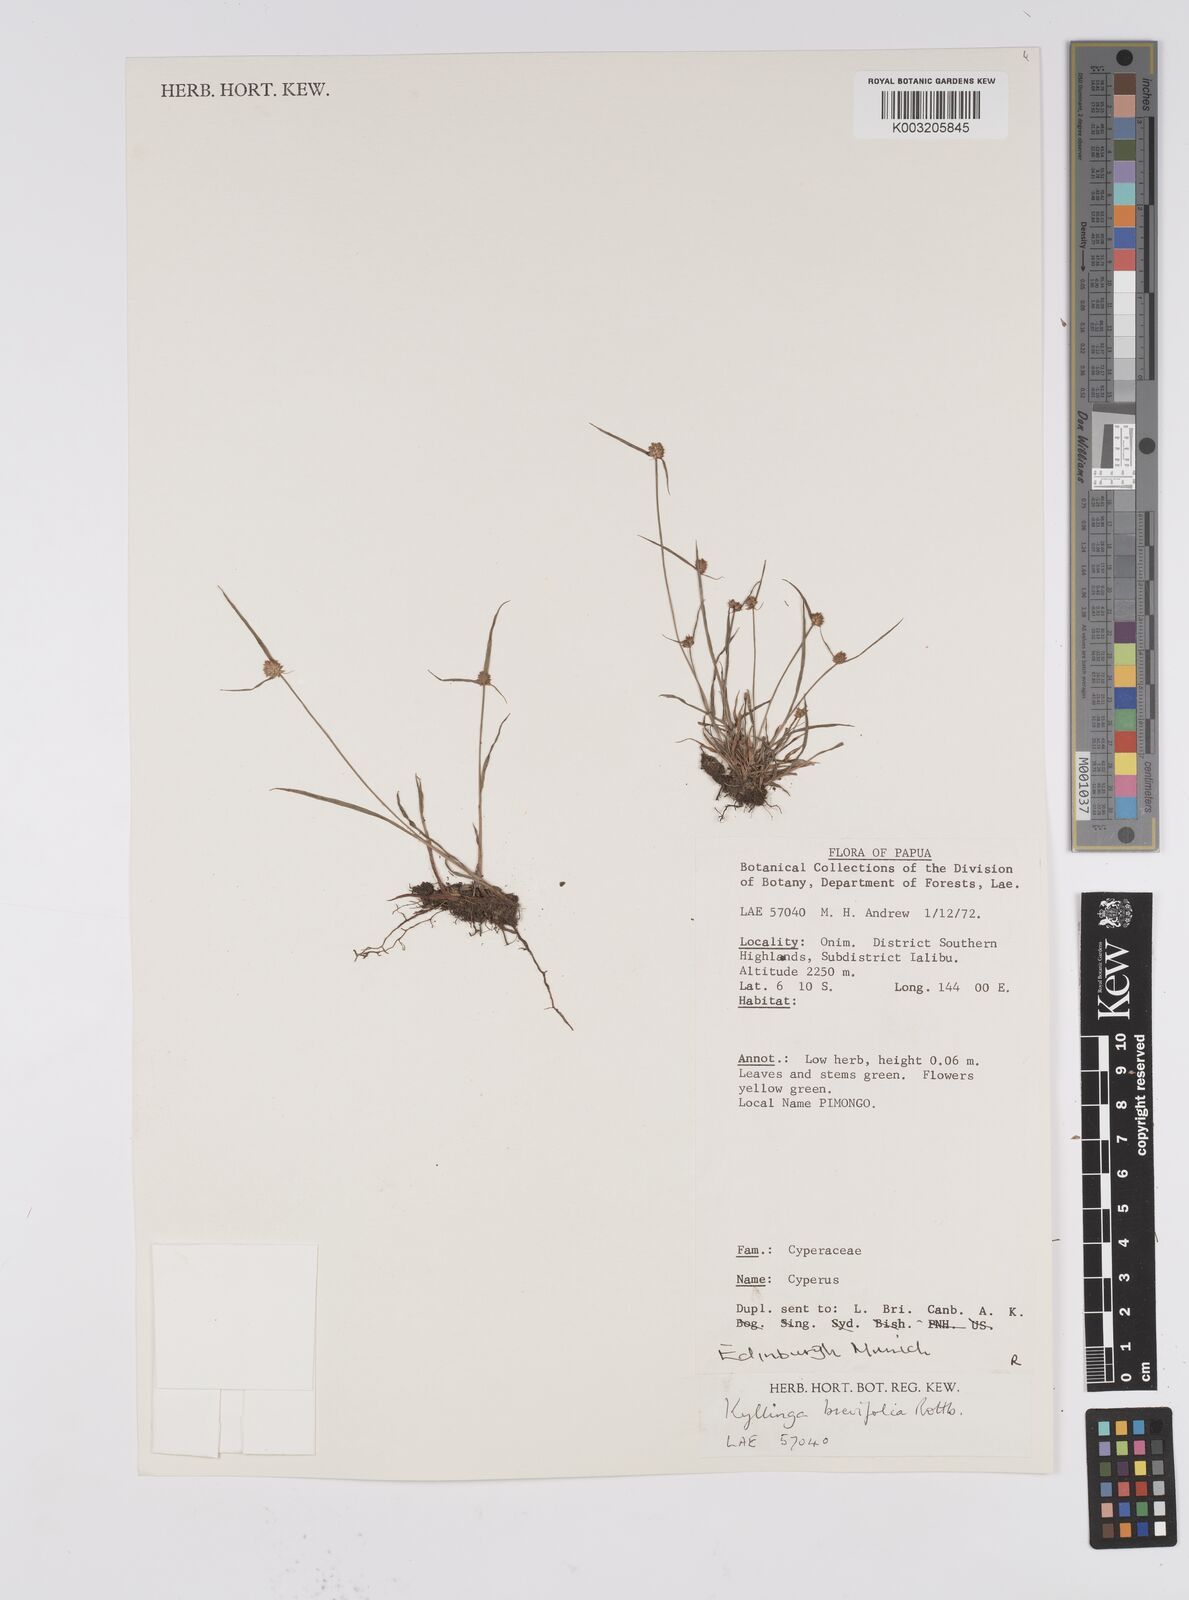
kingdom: Plantae
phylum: Tracheophyta
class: Liliopsida
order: Poales
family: Cyperaceae
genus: Cyperus
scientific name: Cyperus brevifolius
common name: Globe kyllinga
